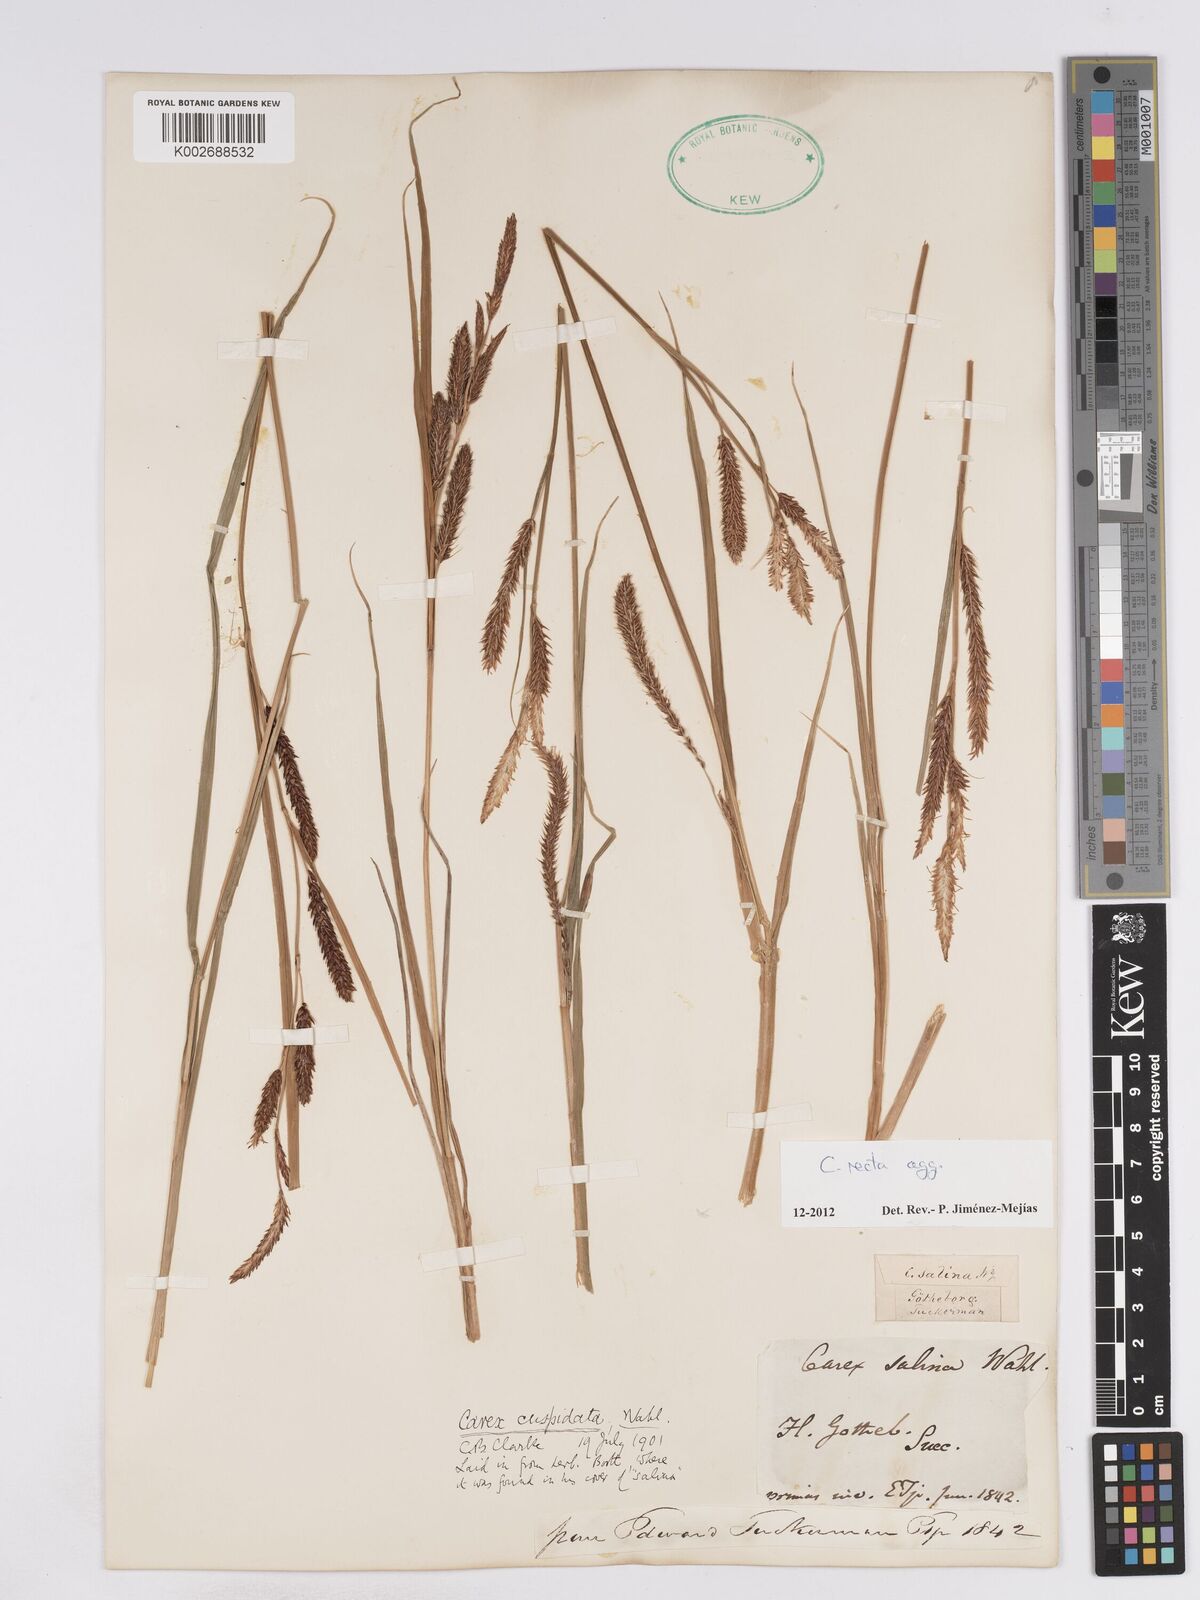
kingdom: Plantae
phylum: Tracheophyta
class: Liliopsida
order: Poales
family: Cyperaceae
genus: Carex
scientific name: Carex recta
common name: Estuarine sedge
